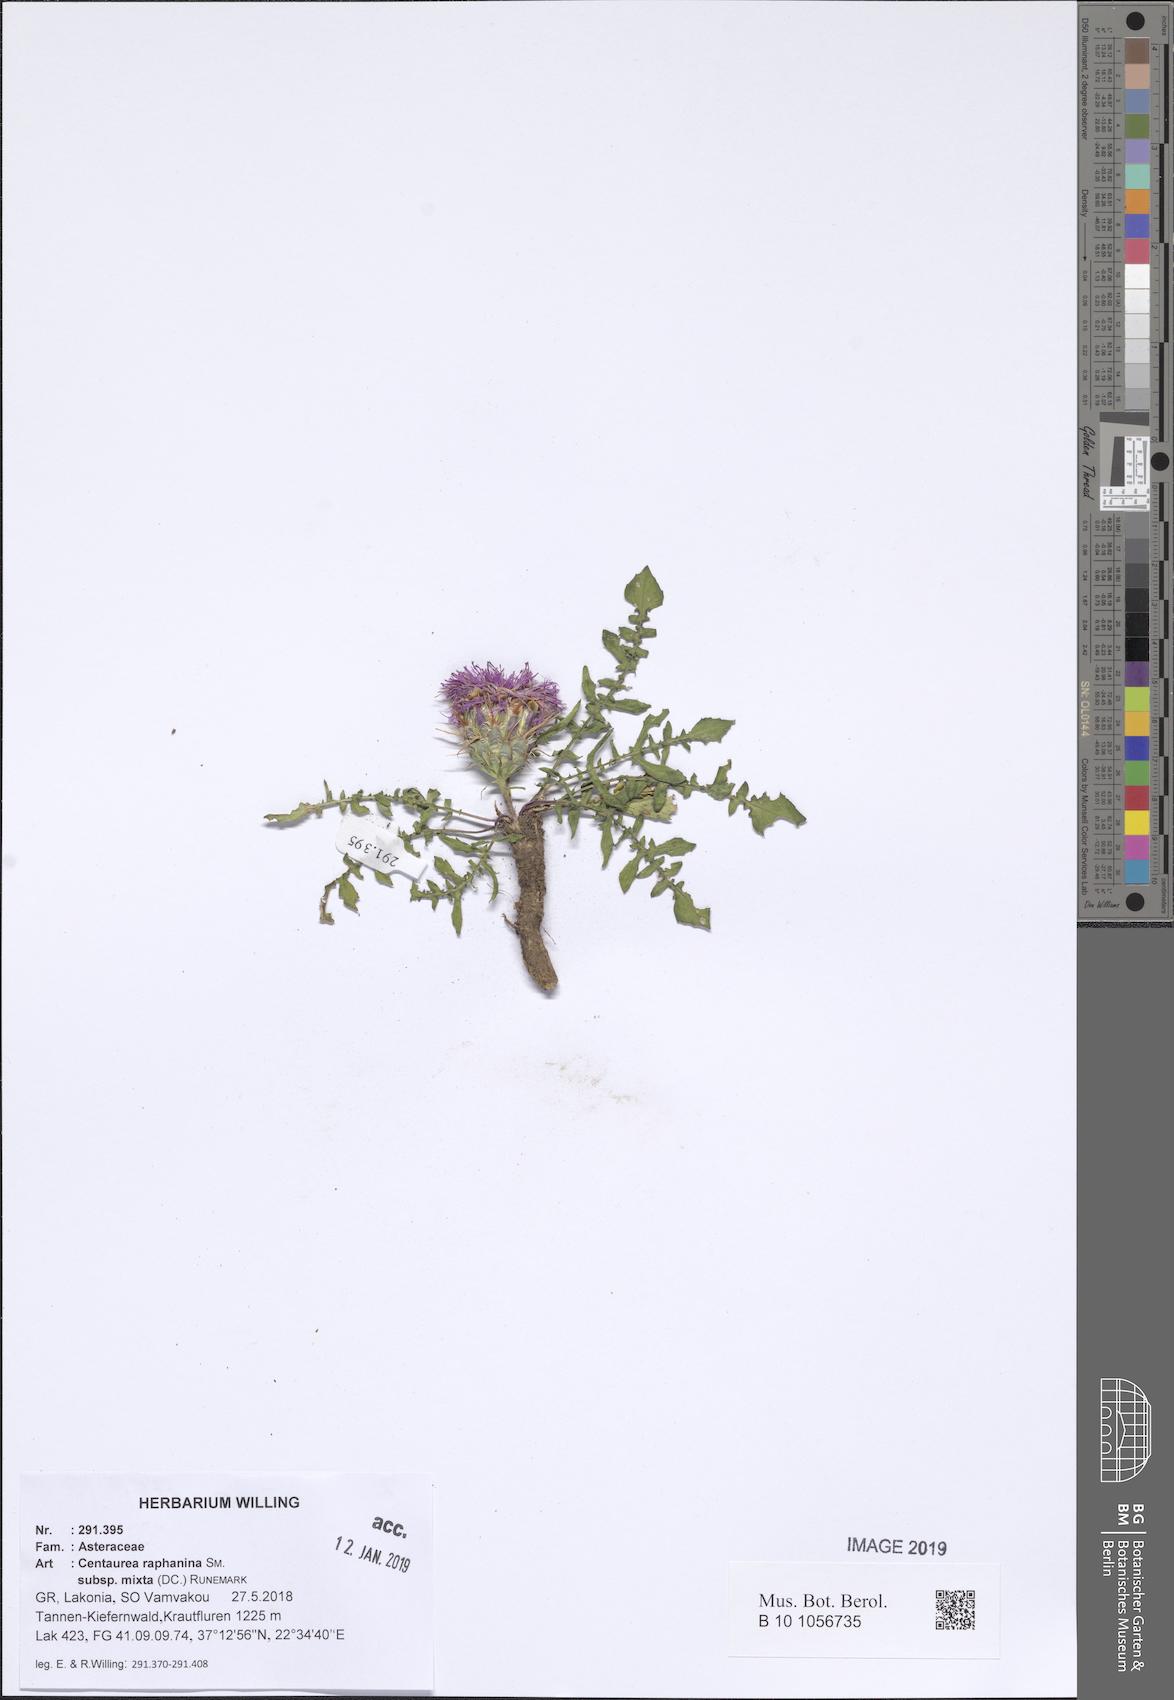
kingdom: Plantae
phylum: Tracheophyta
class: Magnoliopsida
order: Asterales
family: Asteraceae
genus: Centaurea
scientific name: Centaurea raphanina
